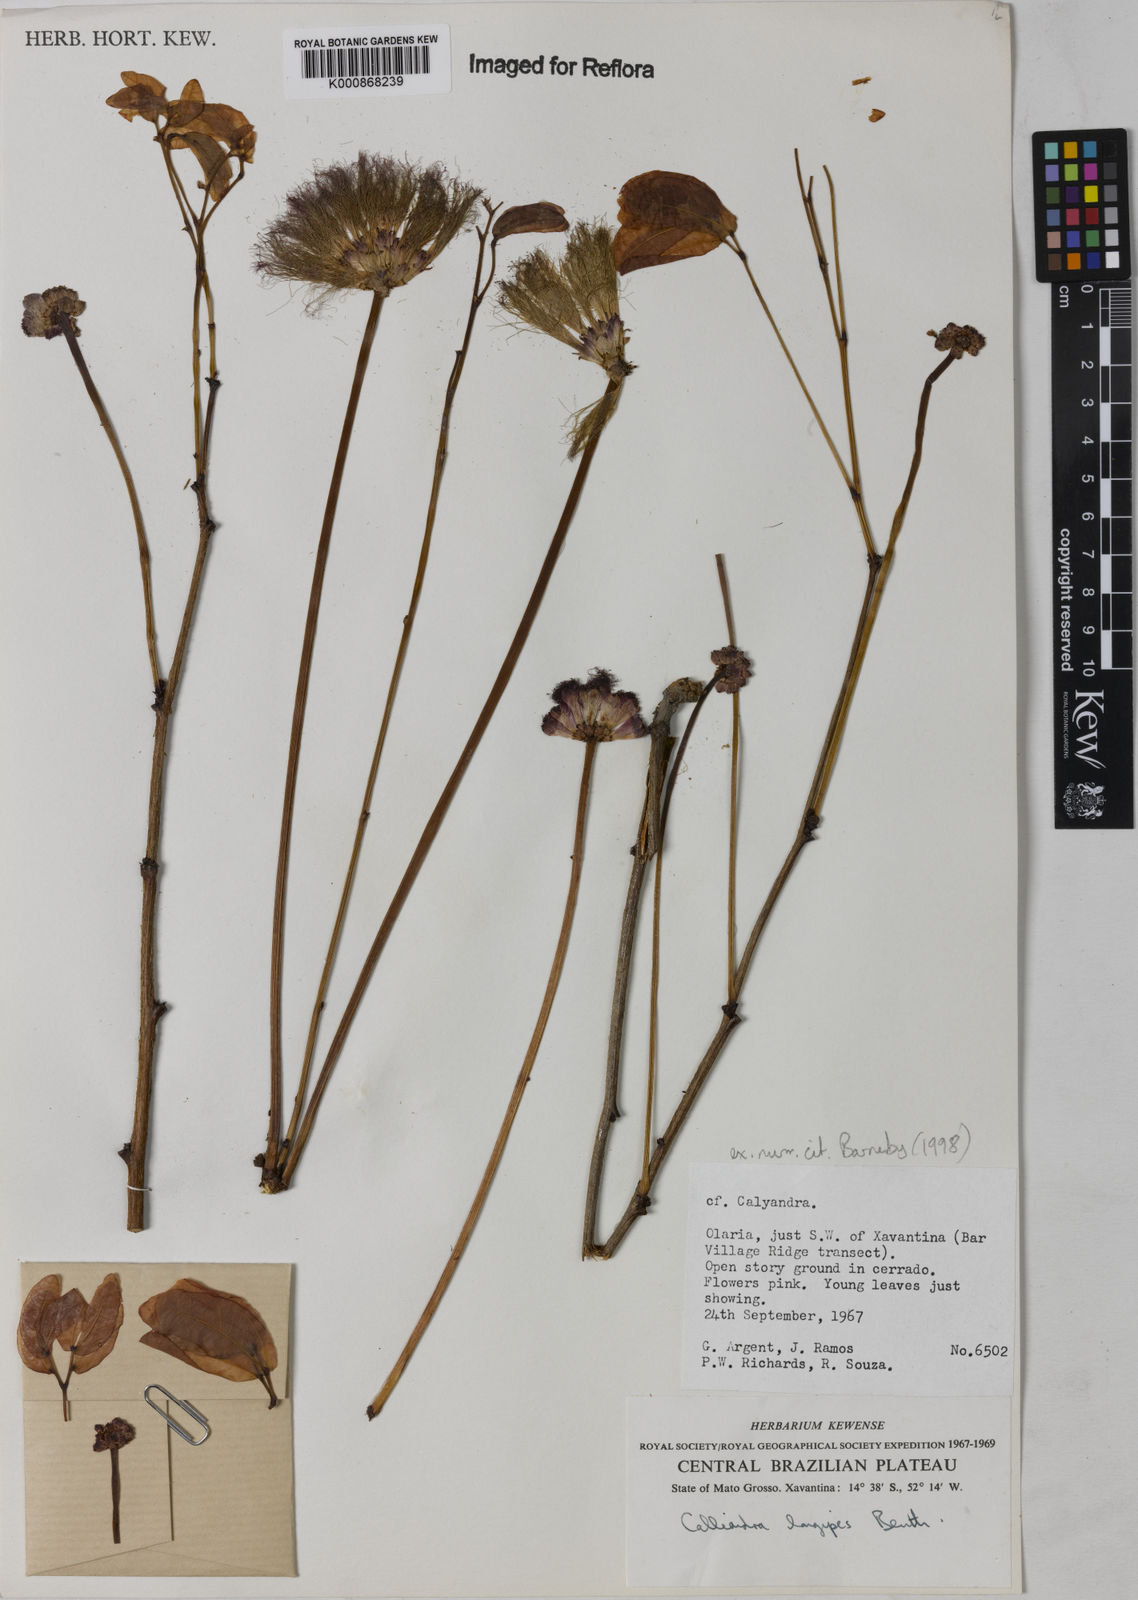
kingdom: Plantae
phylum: Tracheophyta
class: Magnoliopsida
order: Fabales
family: Fabaceae
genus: Calliandra
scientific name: Calliandra longipes
